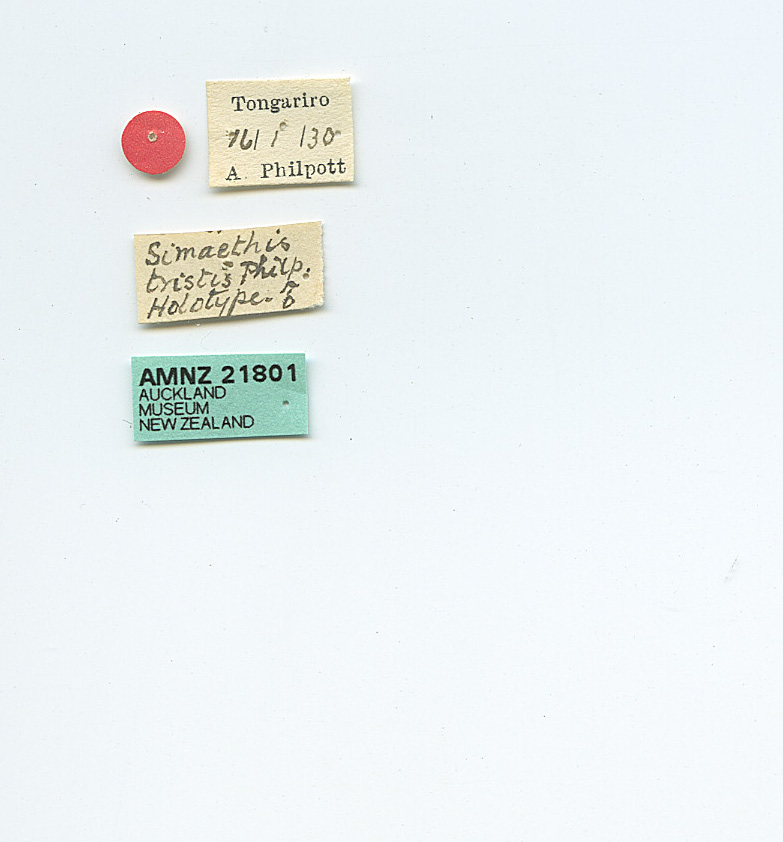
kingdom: Animalia
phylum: Arthropoda
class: Insecta
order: Lepidoptera
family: Choreutidae
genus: Asterivora
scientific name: Asterivora tristis
